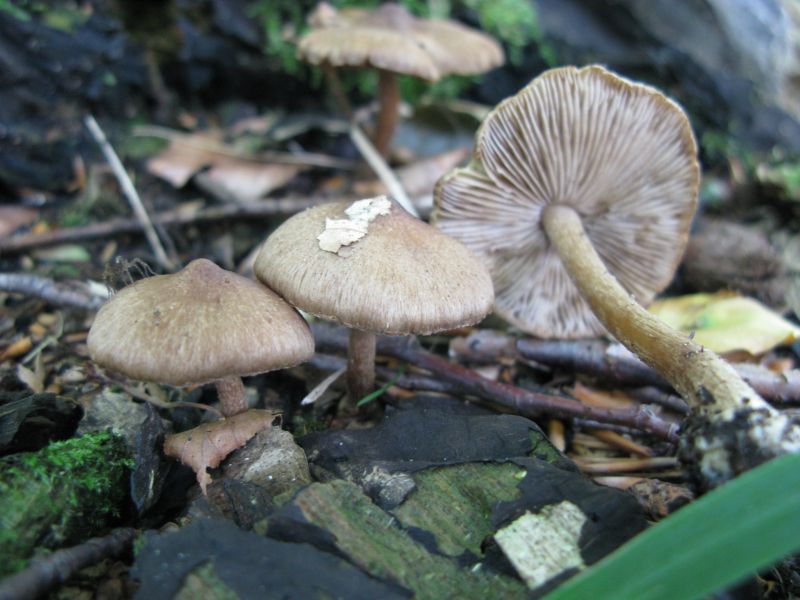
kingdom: Fungi
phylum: Basidiomycota
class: Agaricomycetes
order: Agaricales
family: Inocybaceae
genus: Inocybe
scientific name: Inocybe
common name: trævlhat
